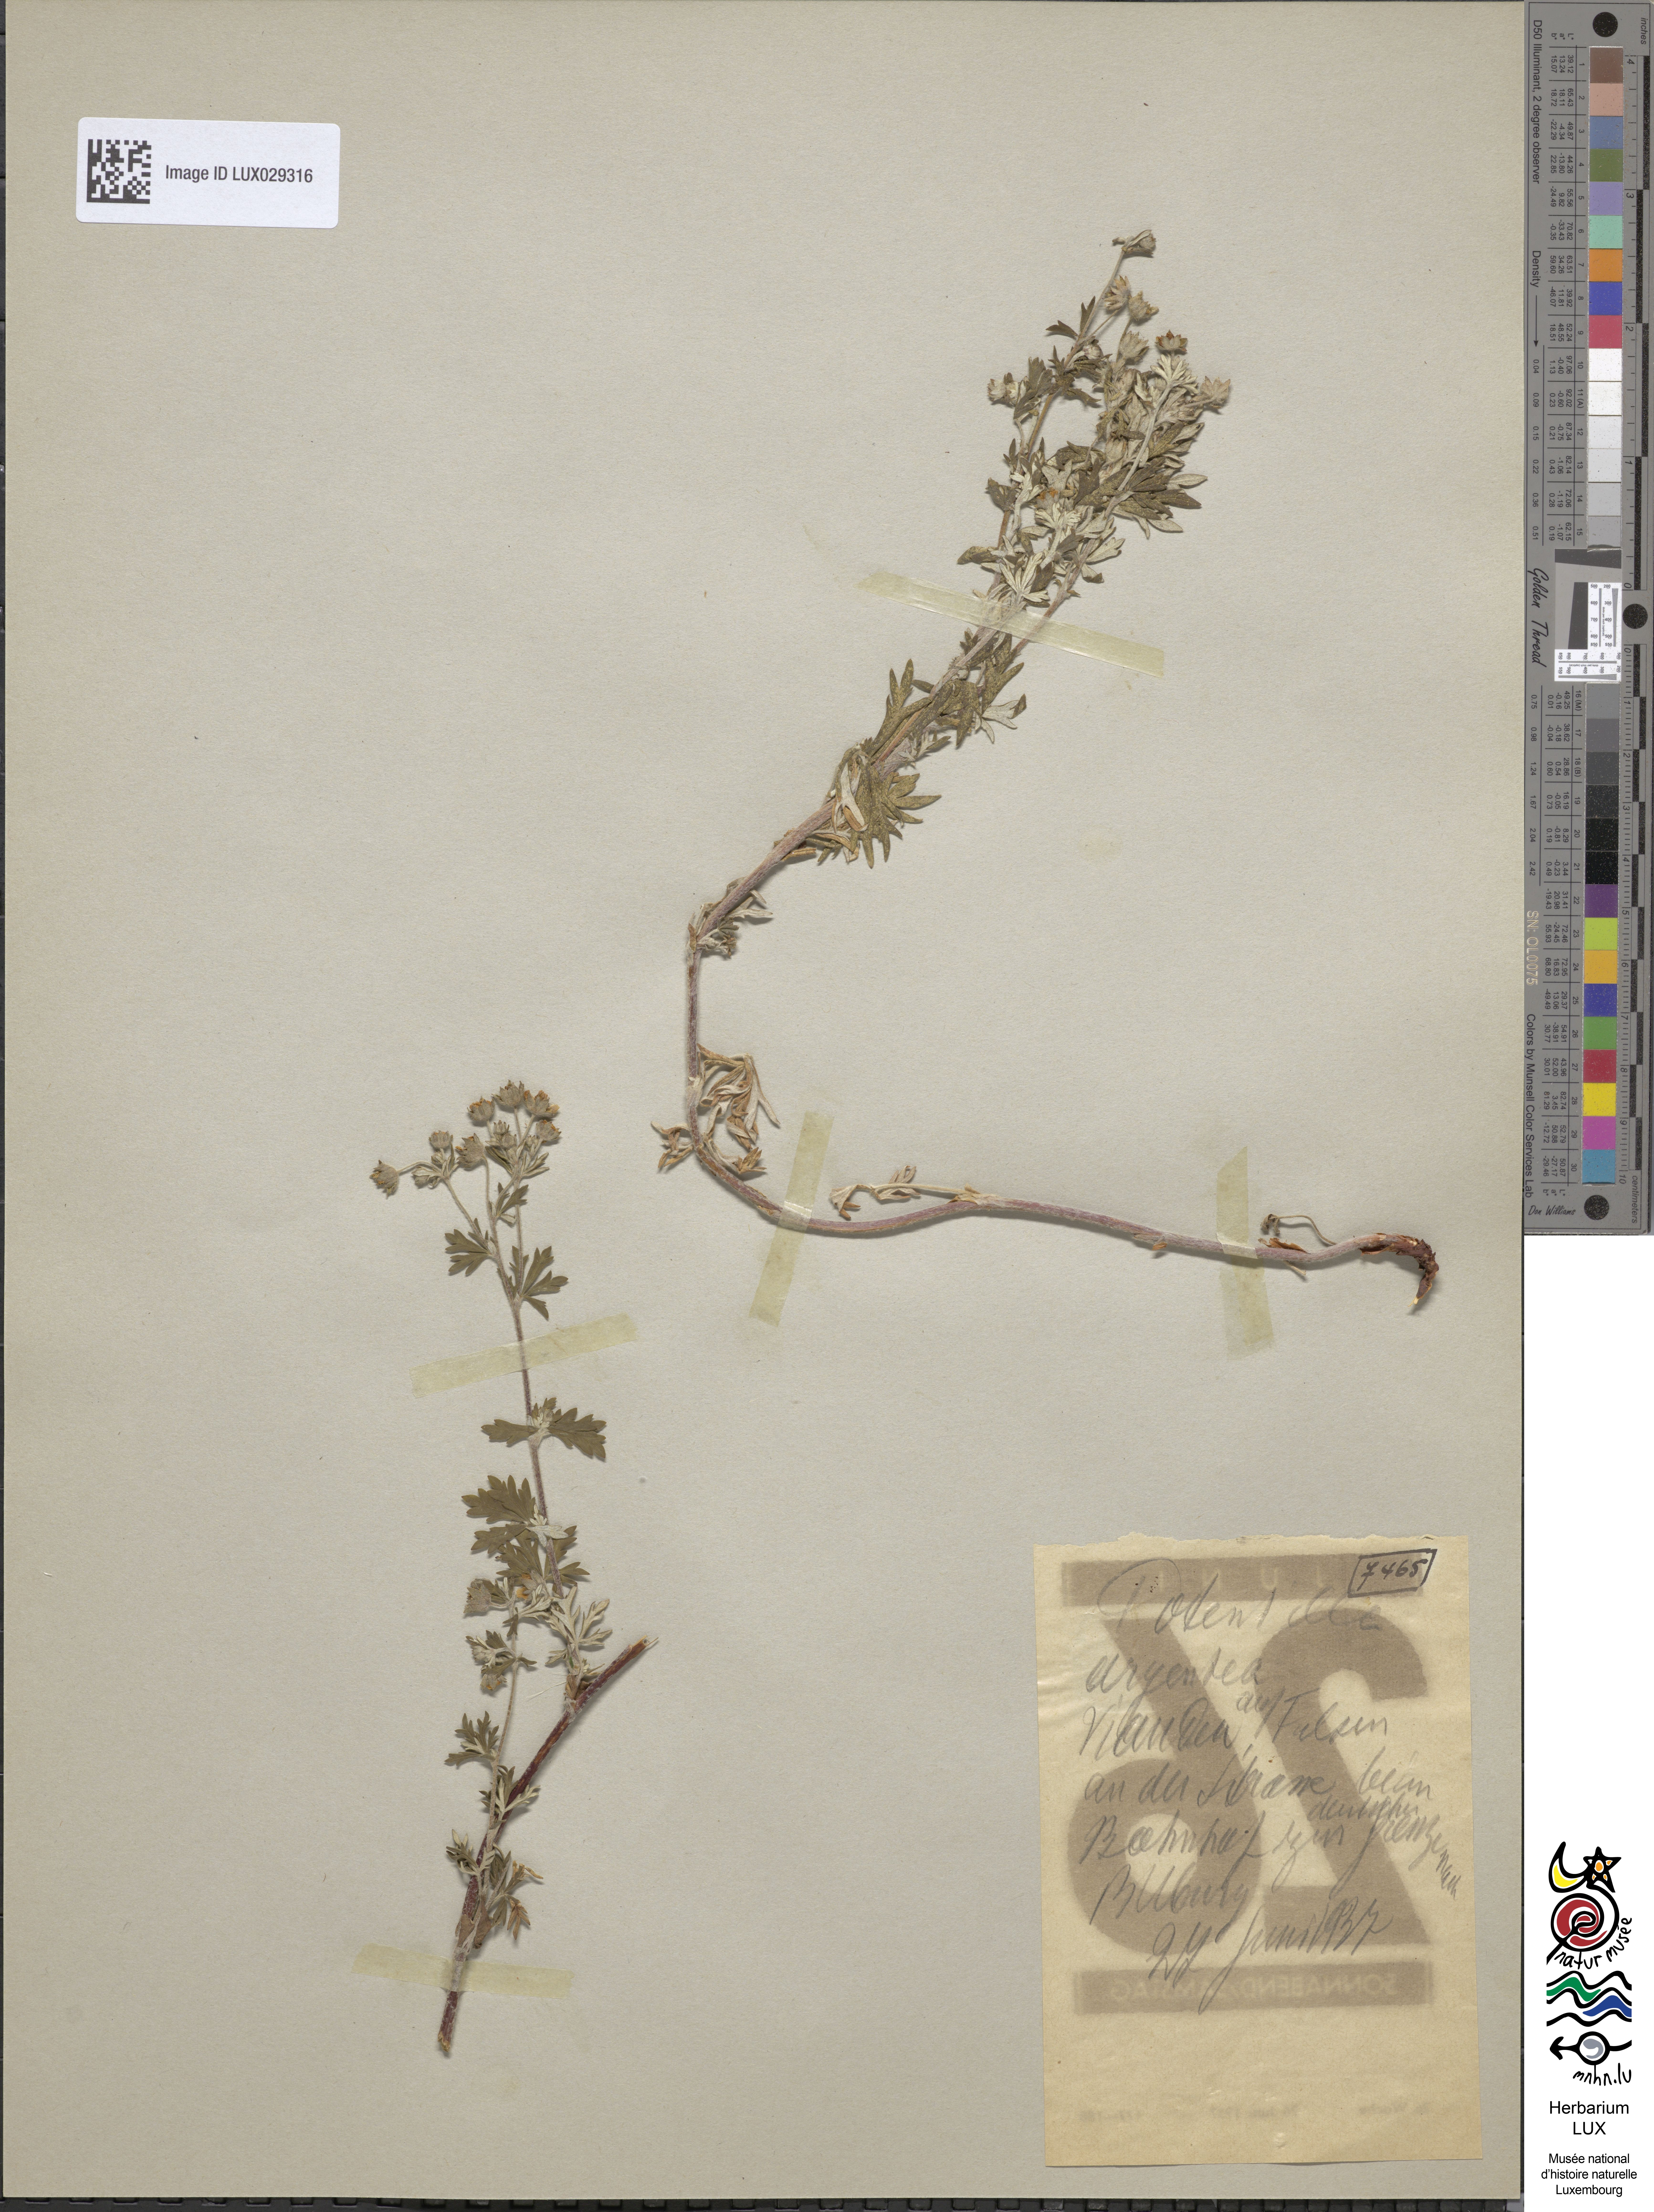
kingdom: Plantae
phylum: Tracheophyta
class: Magnoliopsida
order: Rosales
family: Rosaceae
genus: Potentilla
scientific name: Potentilla argentea
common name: Hoary cinquefoil
